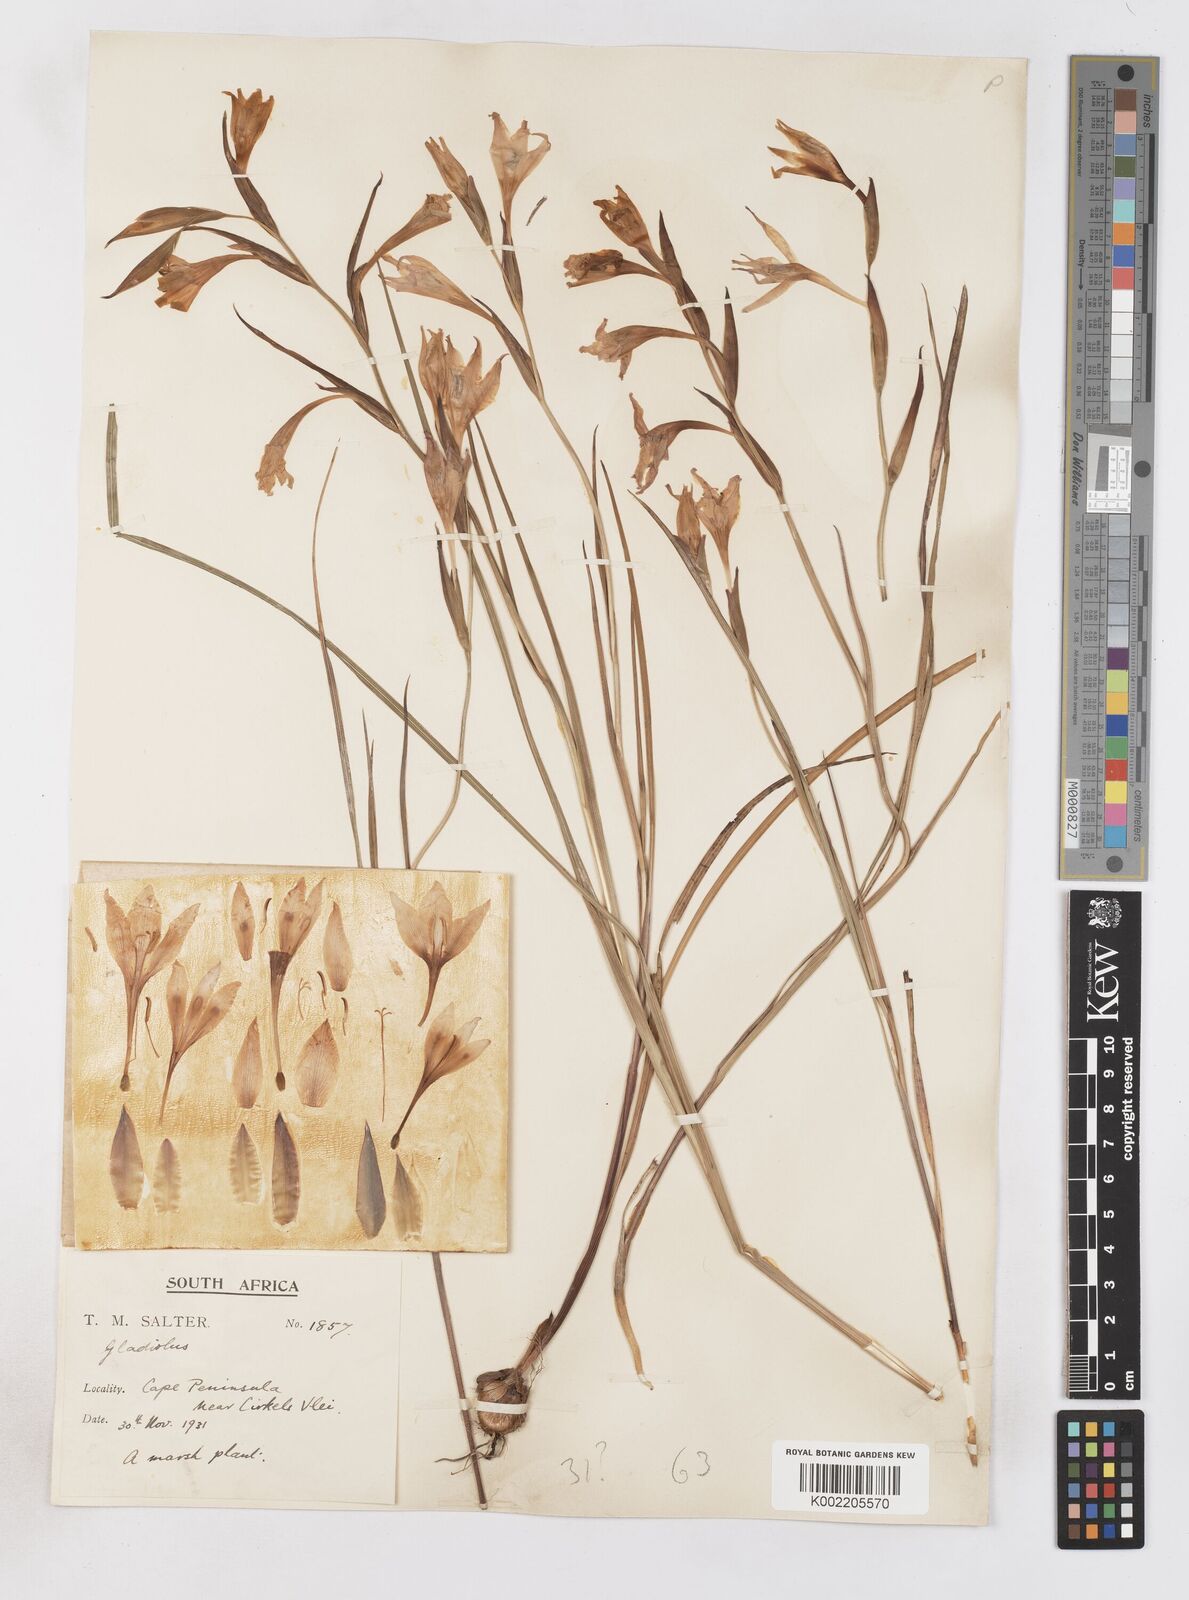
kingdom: Plantae
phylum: Tracheophyta
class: Liliopsida
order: Asparagales
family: Iridaceae
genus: Gladiolus
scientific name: Gladiolus carneus
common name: Painted-lady
